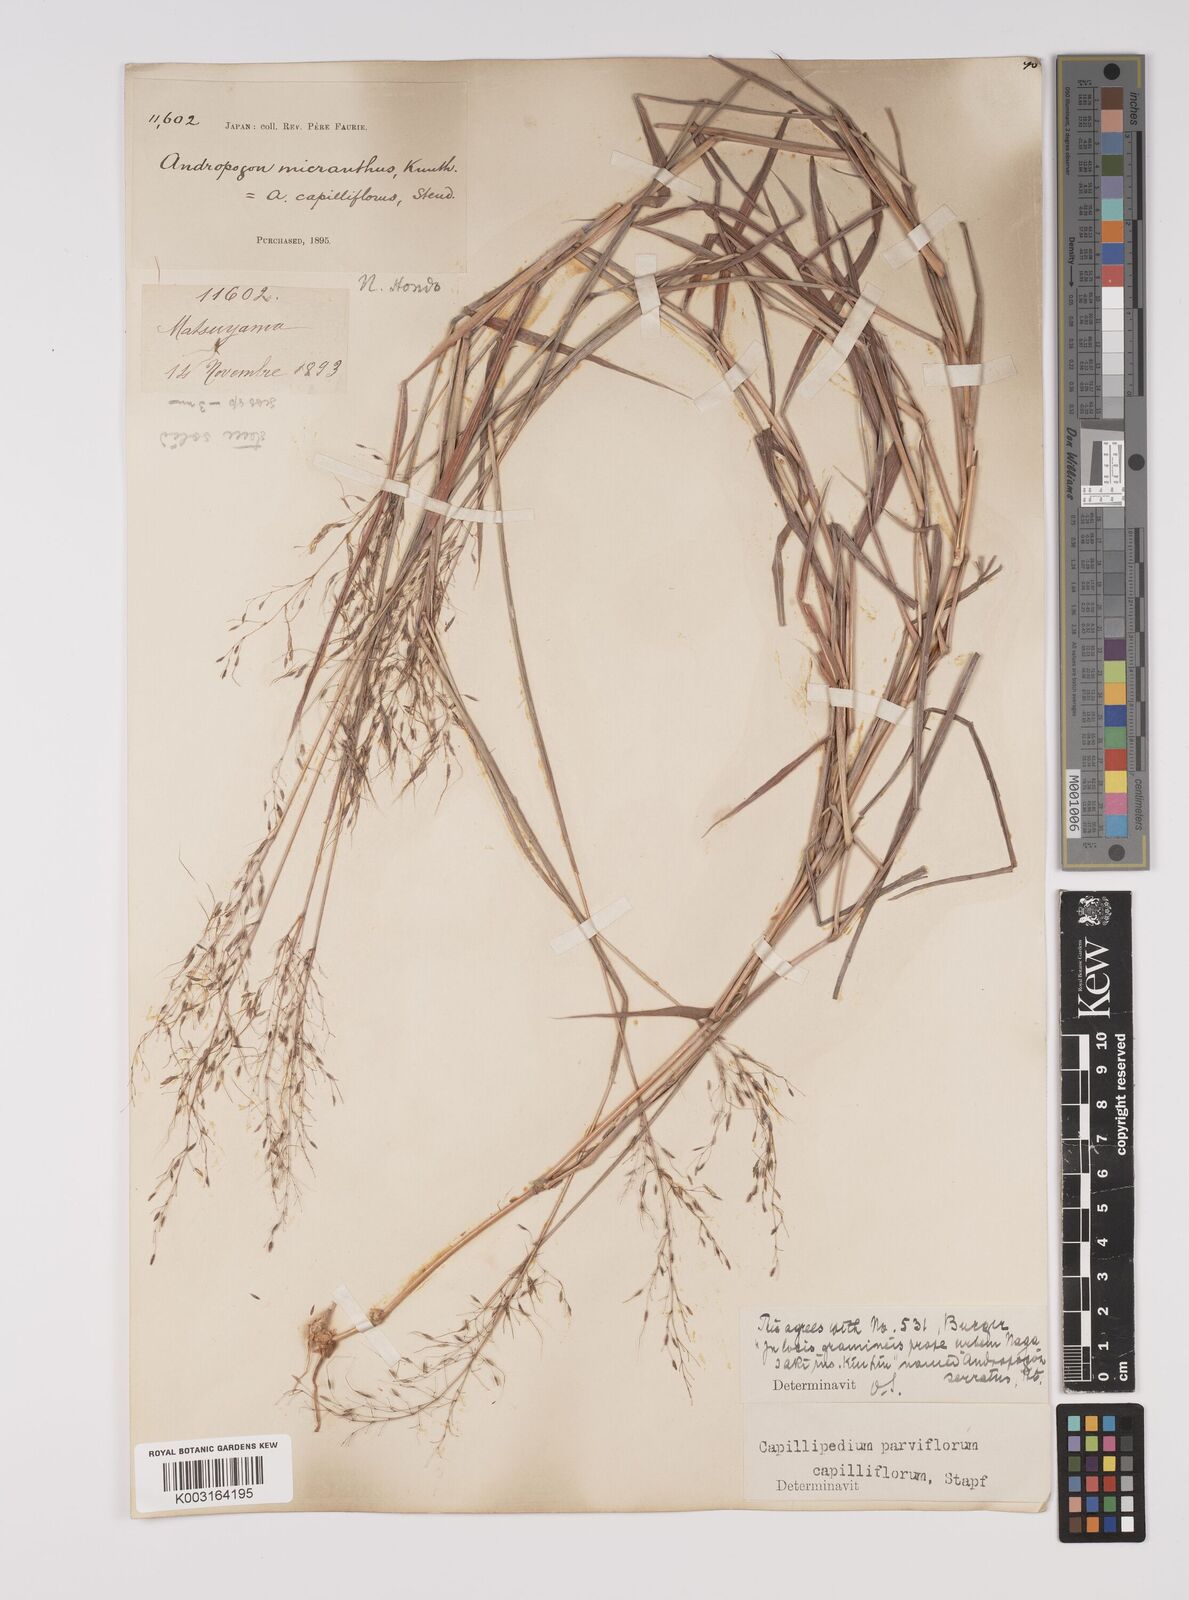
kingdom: Plantae
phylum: Tracheophyta
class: Liliopsida
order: Poales
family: Poaceae
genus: Capillipedium
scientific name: Capillipedium parviflorum
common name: Golden-beard
